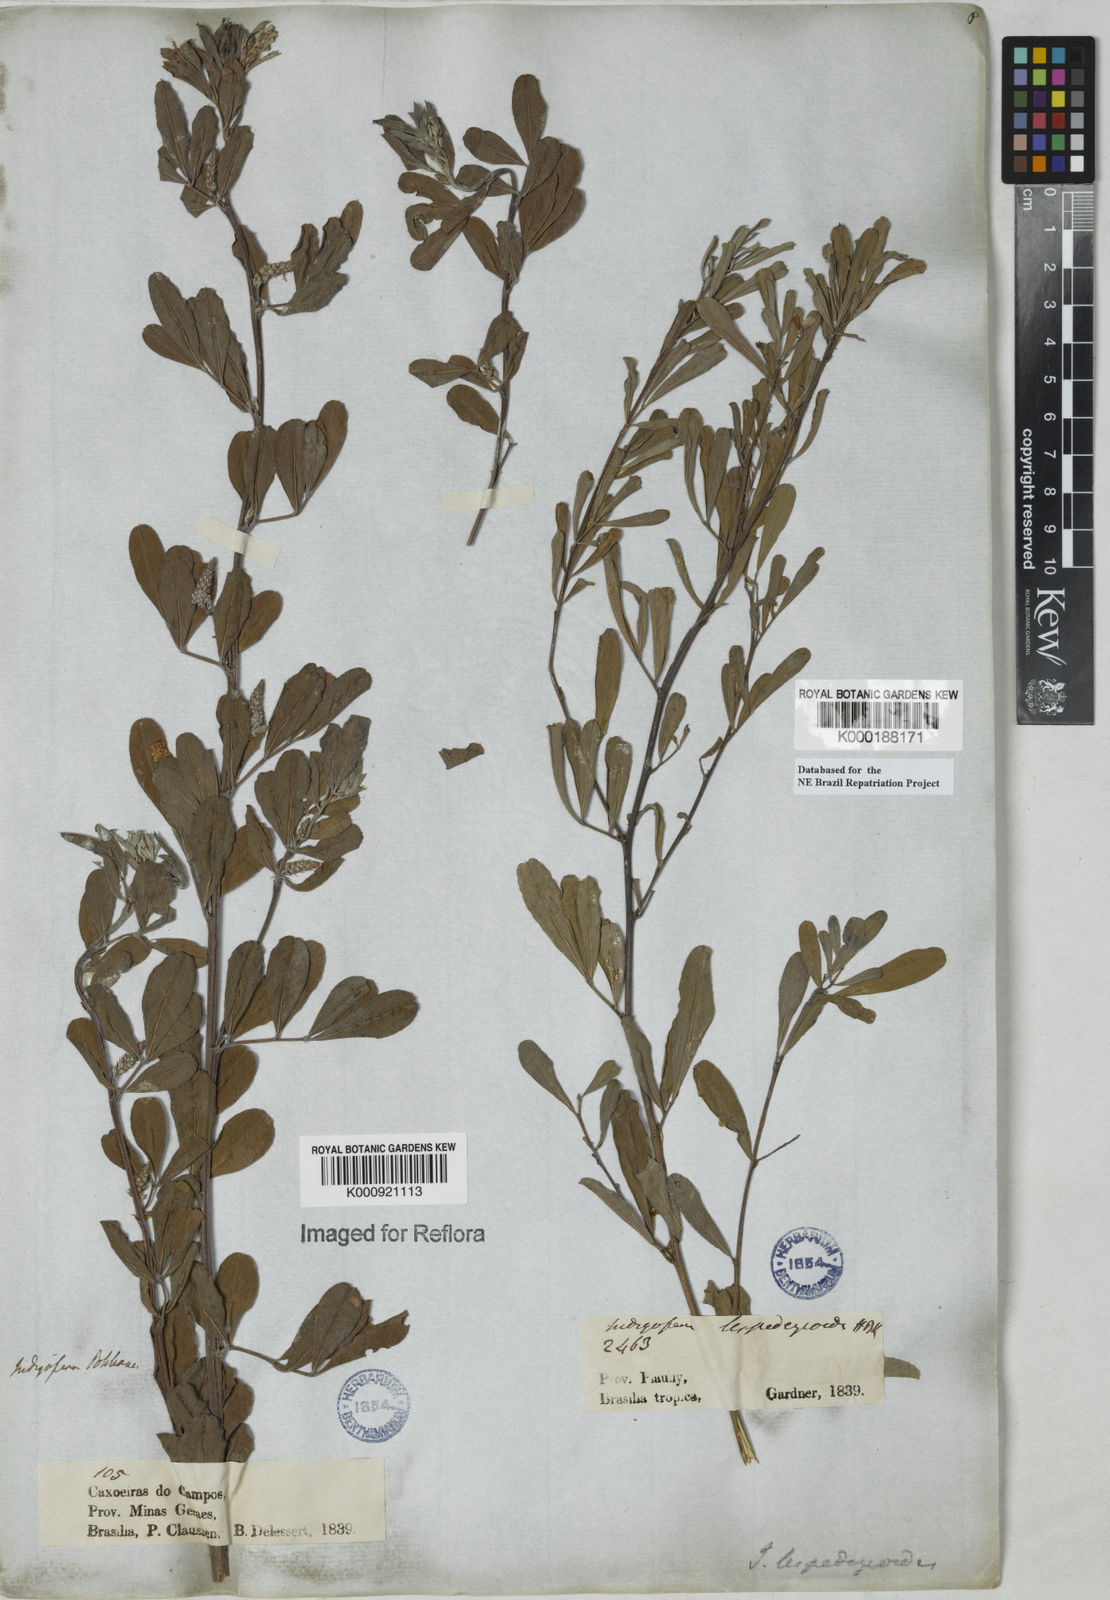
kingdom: Plantae
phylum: Tracheophyta
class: Magnoliopsida
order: Fabales
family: Fabaceae
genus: Indigofera
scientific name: Indigofera lespedezioides
